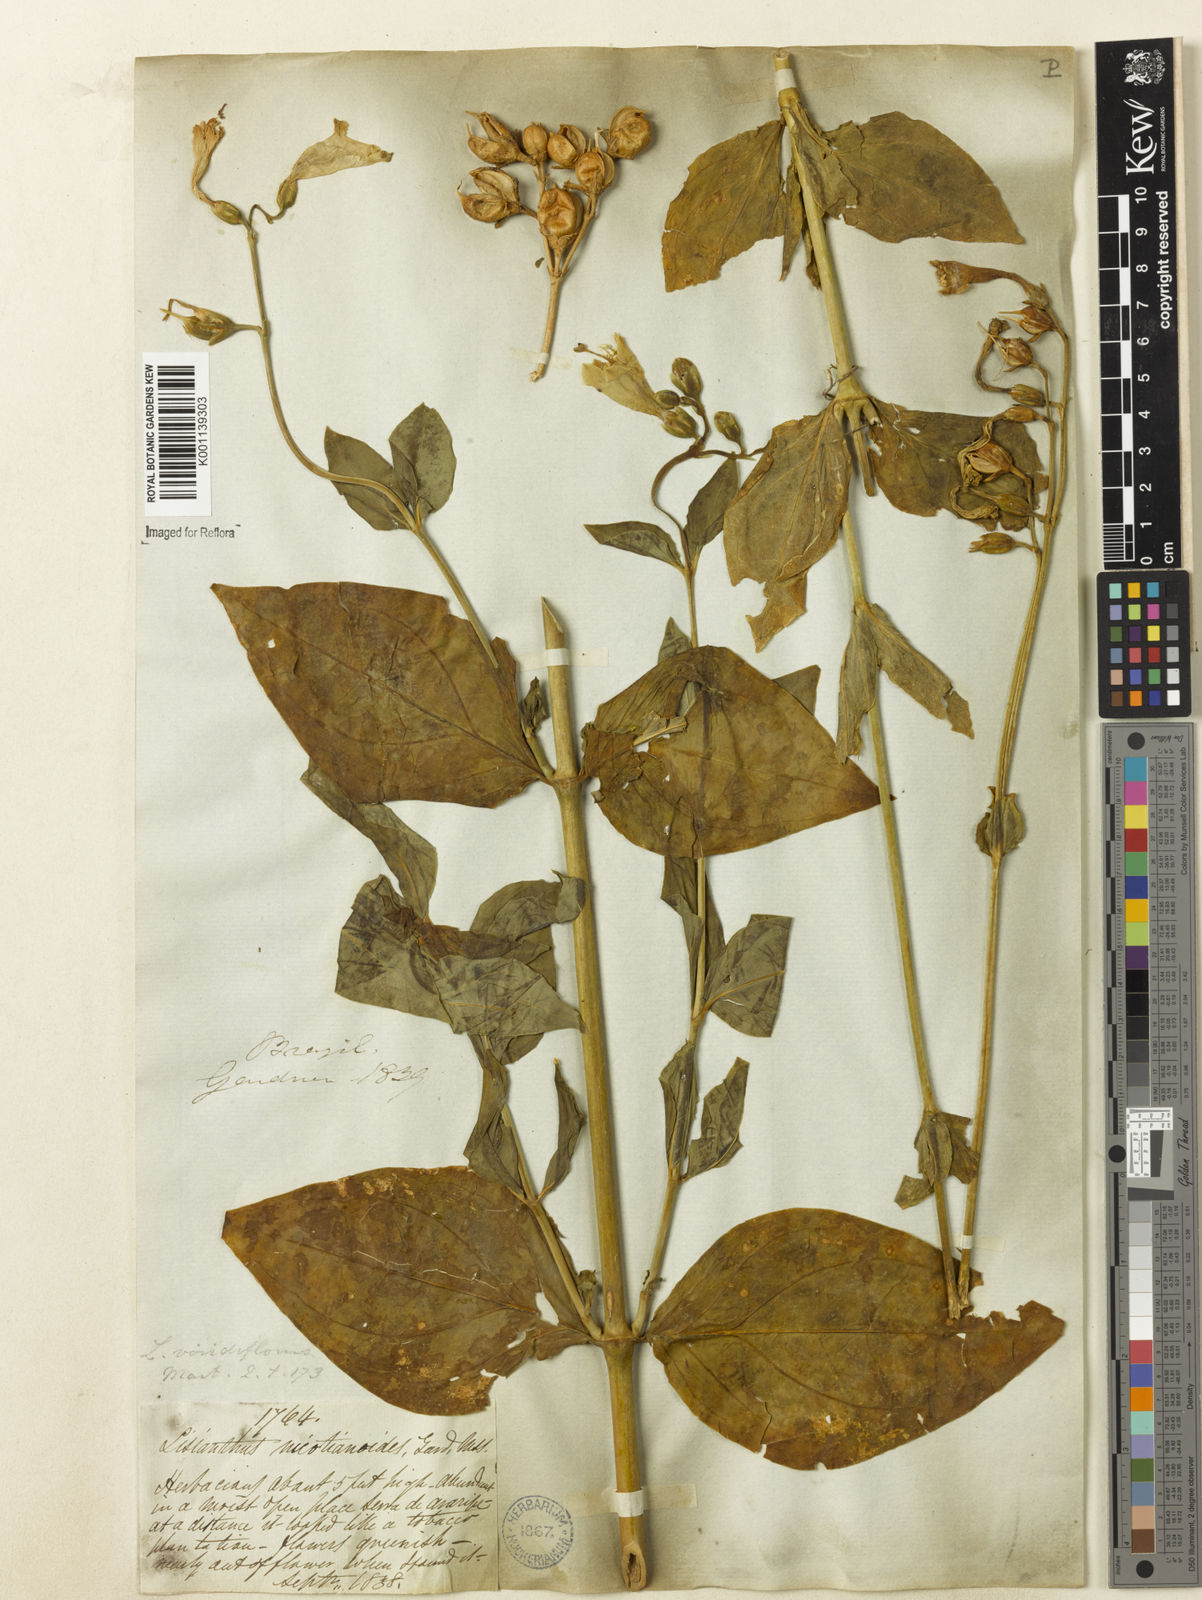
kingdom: Plantae
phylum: Tracheophyta
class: Magnoliopsida
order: Gentianales
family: Gentianaceae
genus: Chelonanthus
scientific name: Chelonanthus viridiflorus
